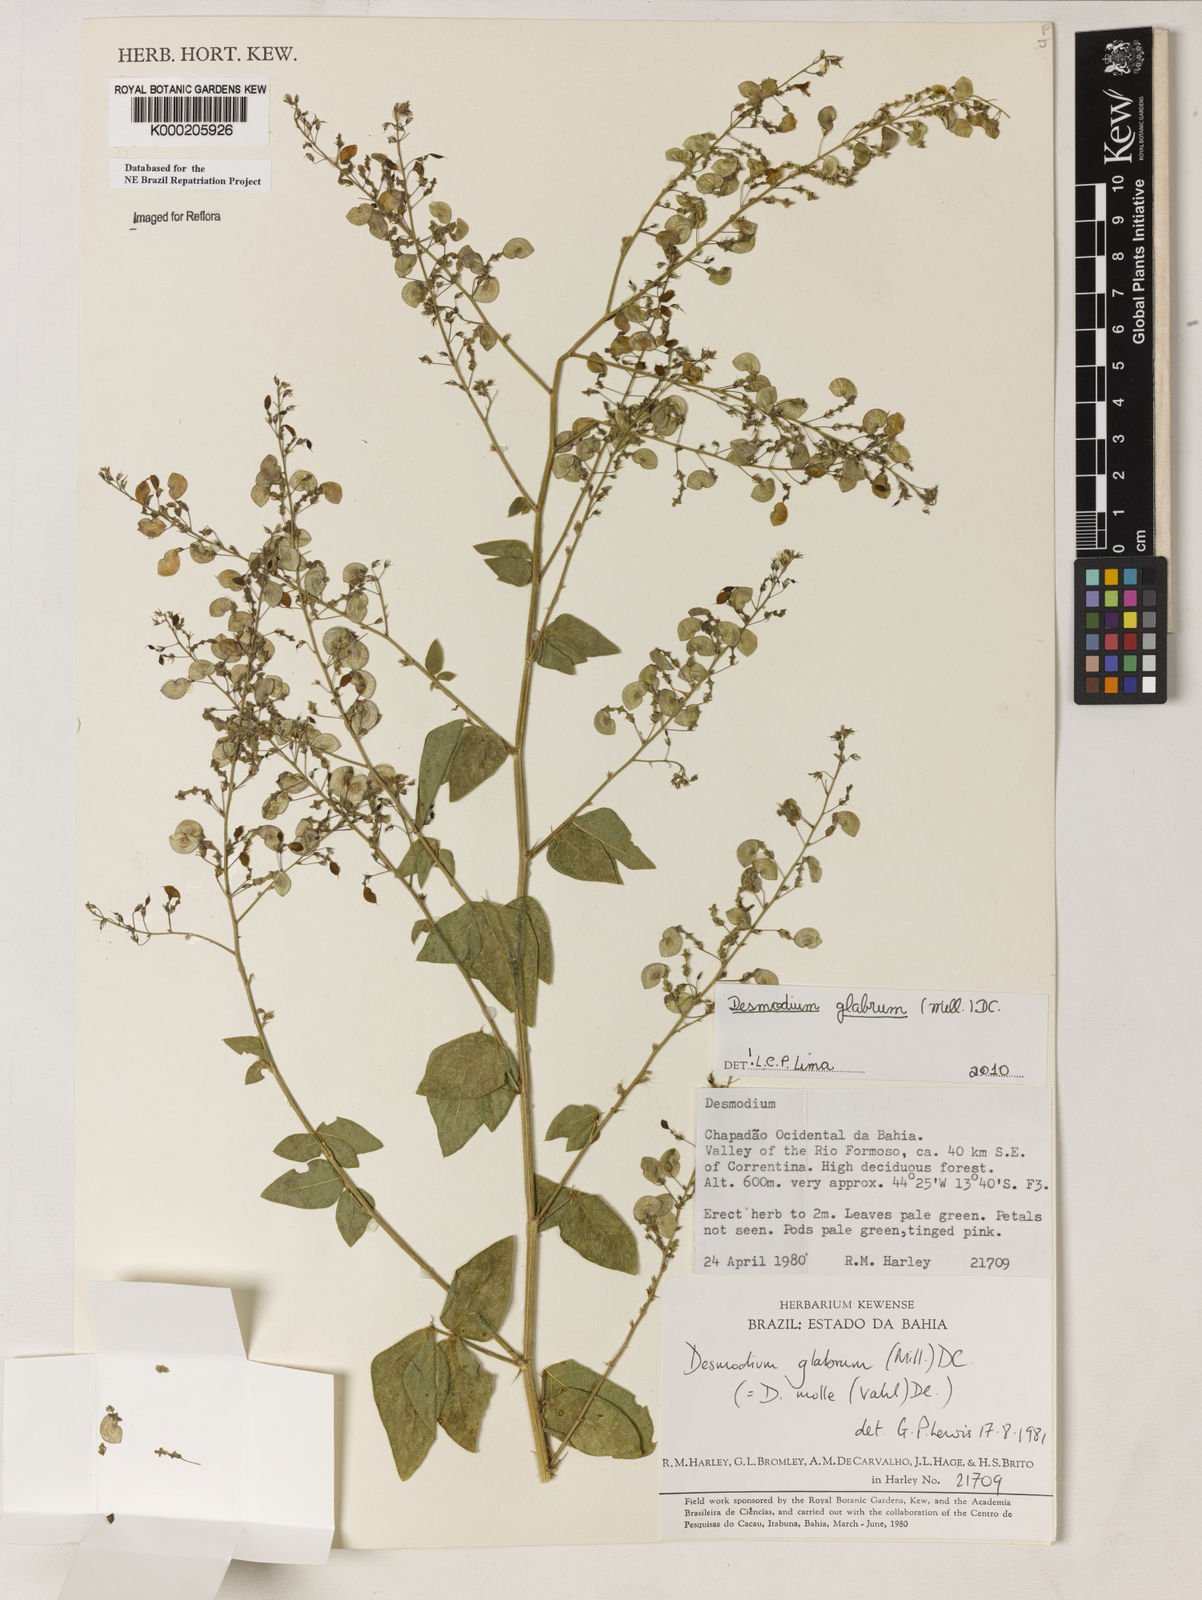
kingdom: Plantae
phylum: Tracheophyta
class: Magnoliopsida
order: Fabales
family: Fabaceae
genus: Desmodium
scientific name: Desmodium glabrum
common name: Zarzabacoa dulce
